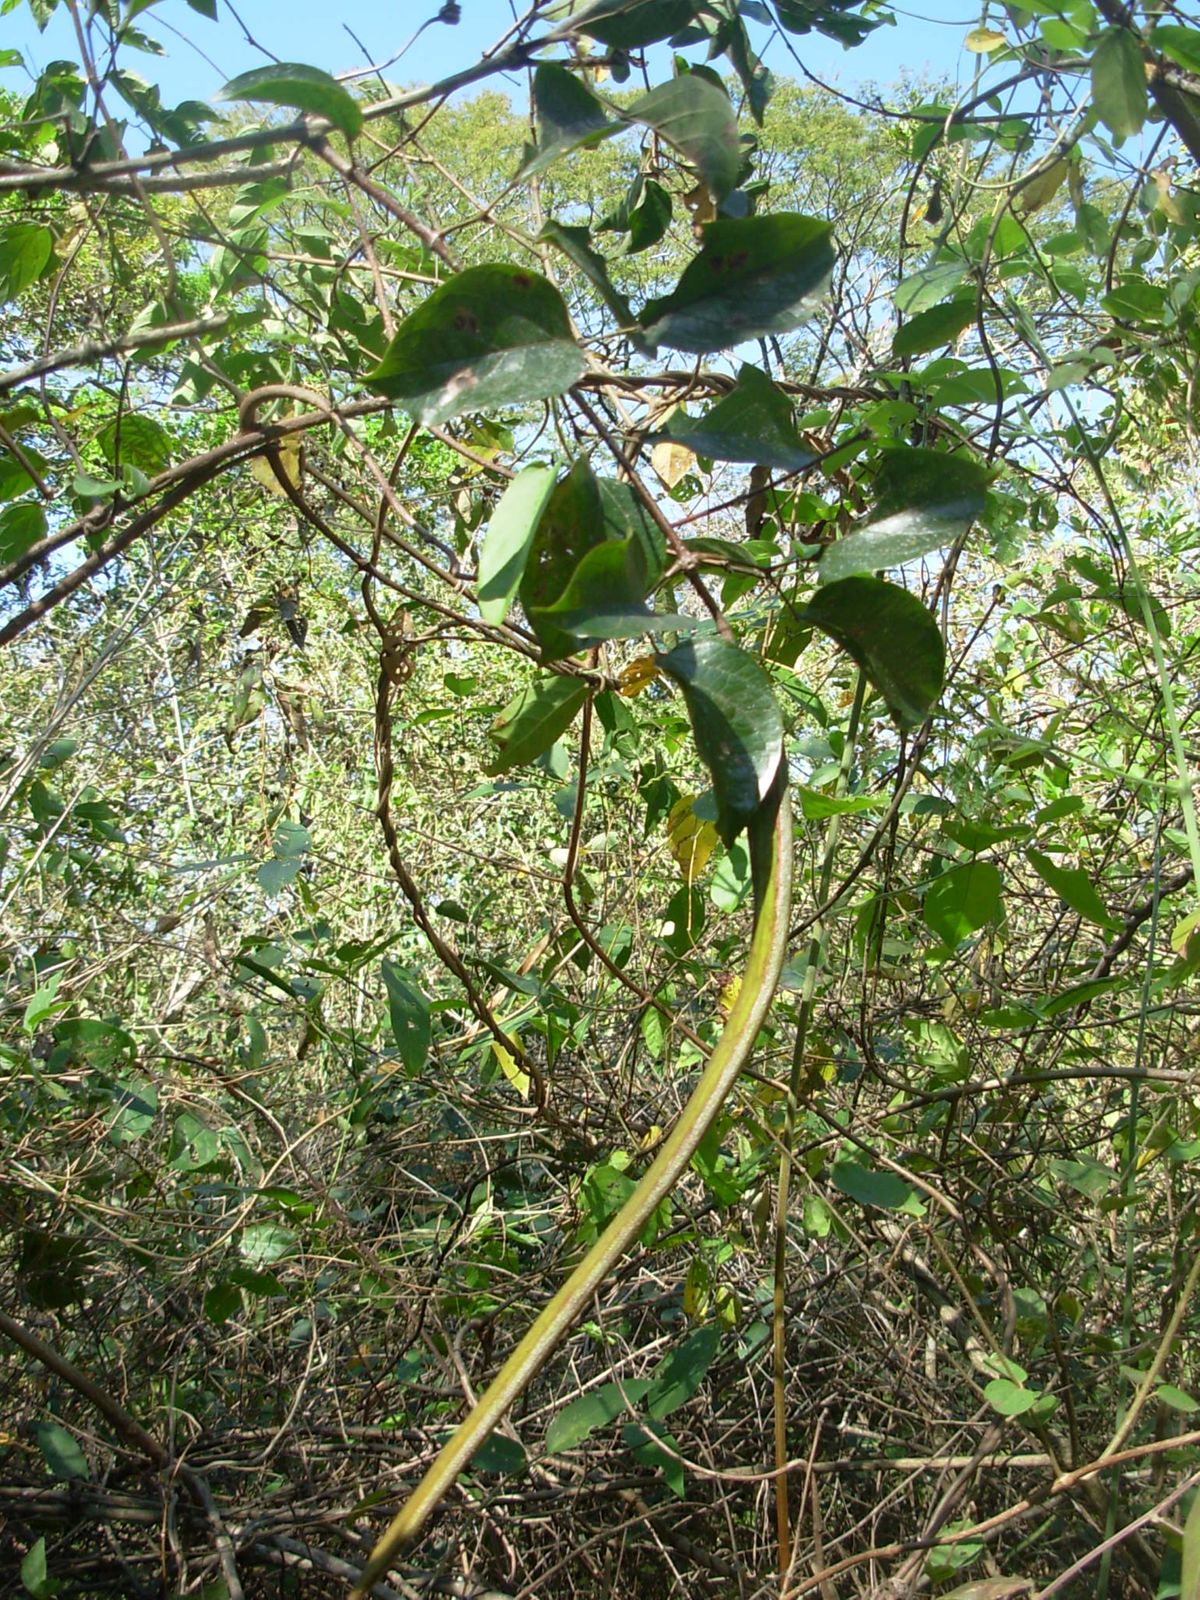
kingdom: Plantae
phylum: Tracheophyta
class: Magnoliopsida
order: Lamiales
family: Bignoniaceae
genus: Fridericia
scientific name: Fridericia chica
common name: Cricketvine
